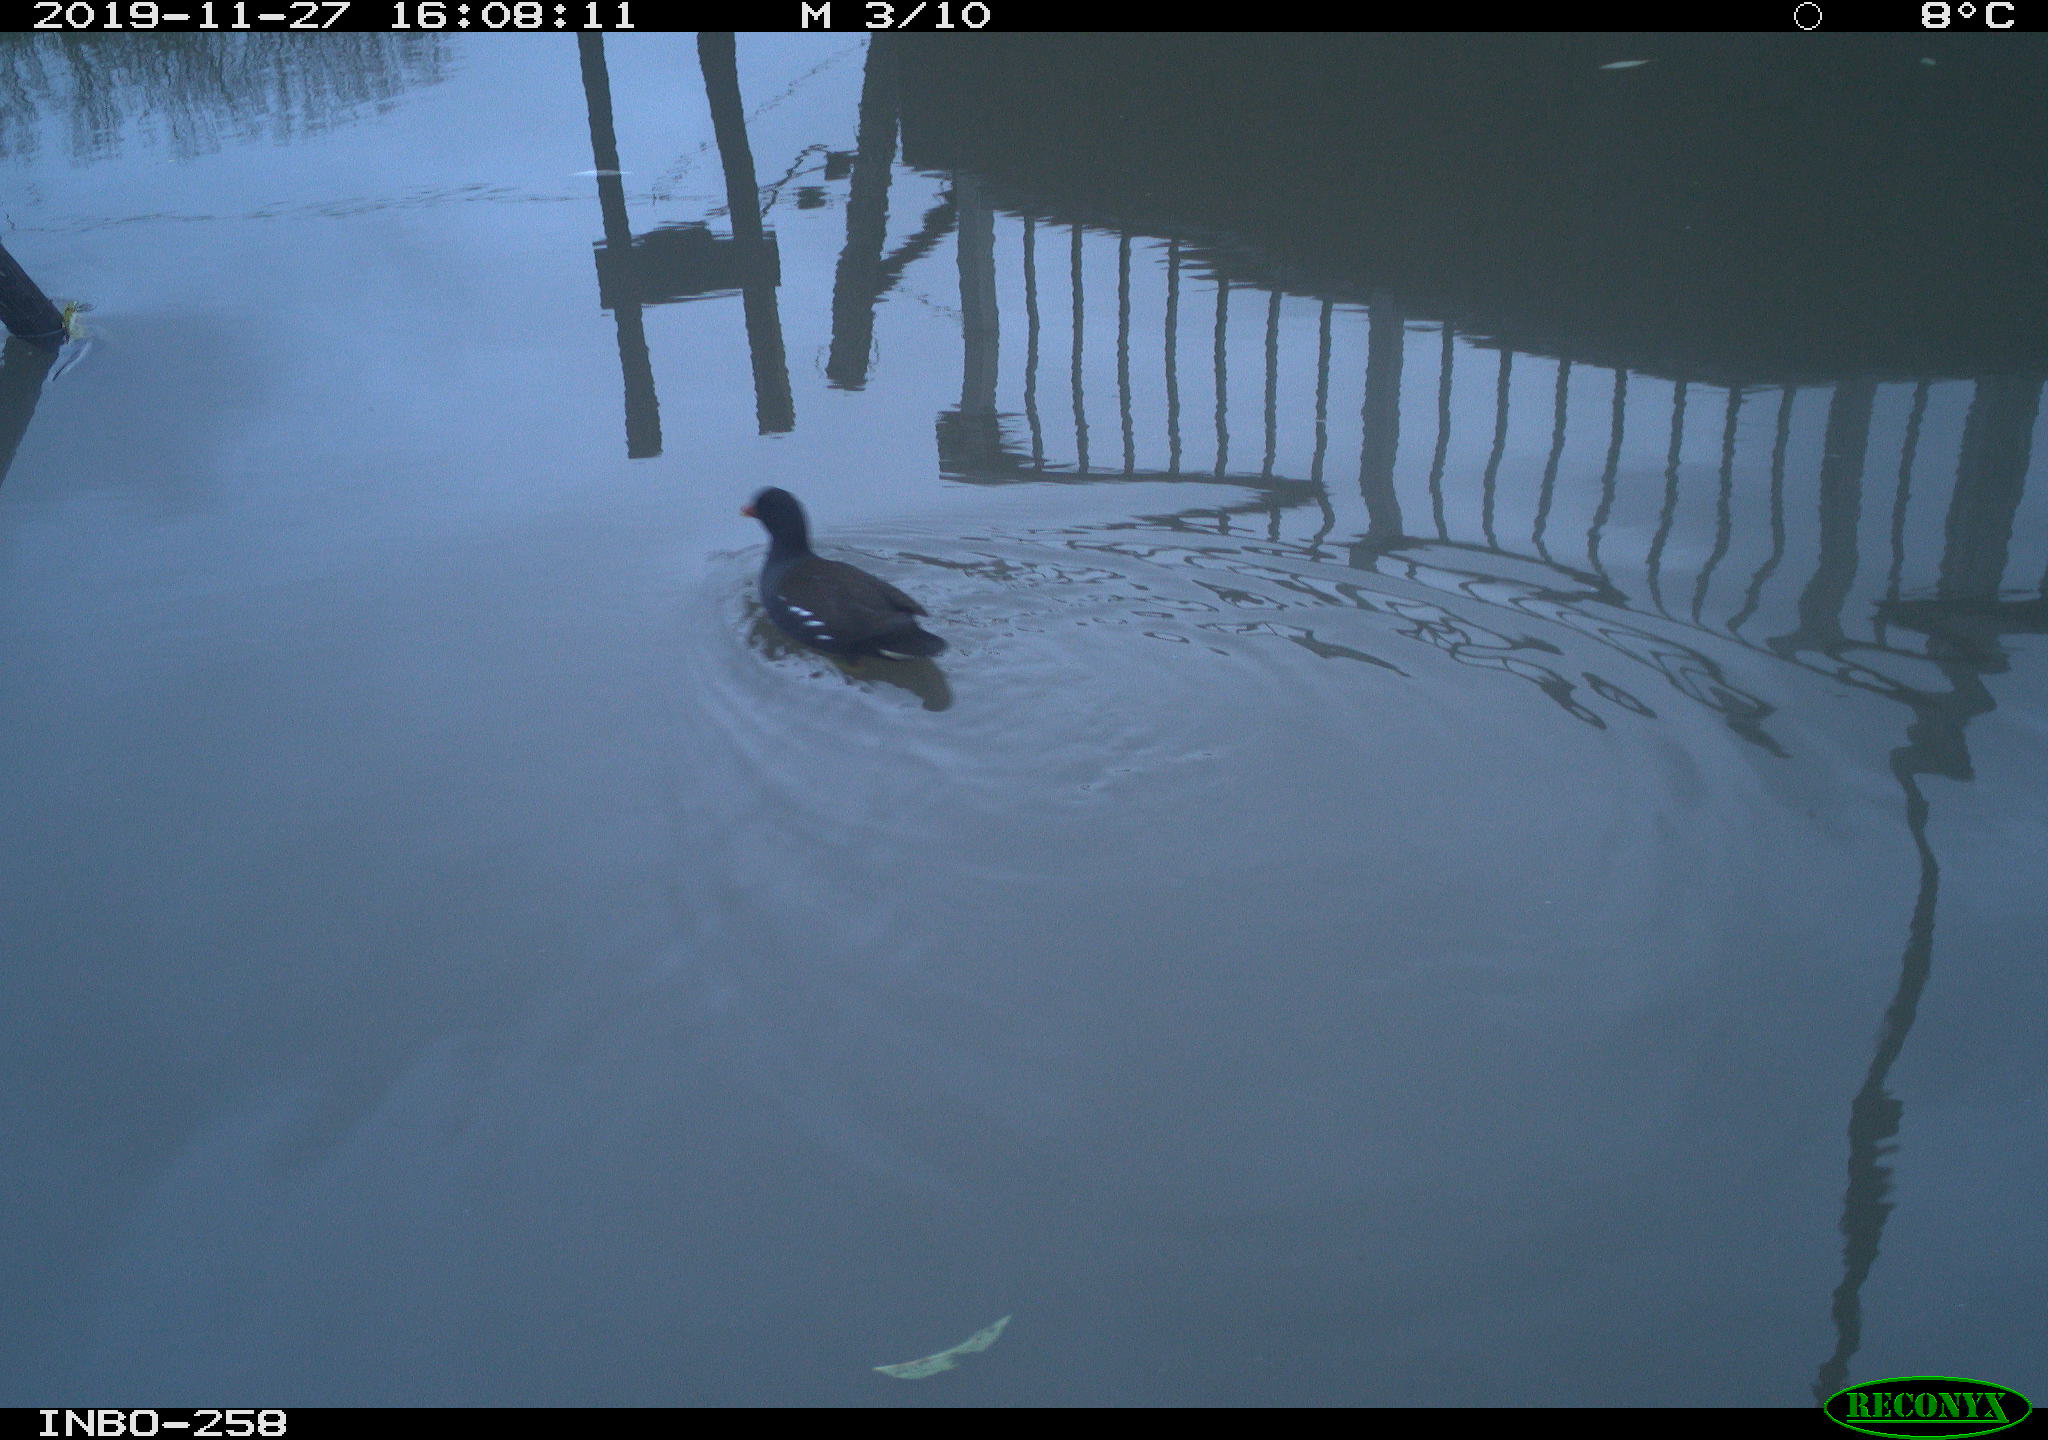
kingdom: Animalia
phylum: Chordata
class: Aves
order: Gruiformes
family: Rallidae
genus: Gallinula
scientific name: Gallinula chloropus
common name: Common moorhen
